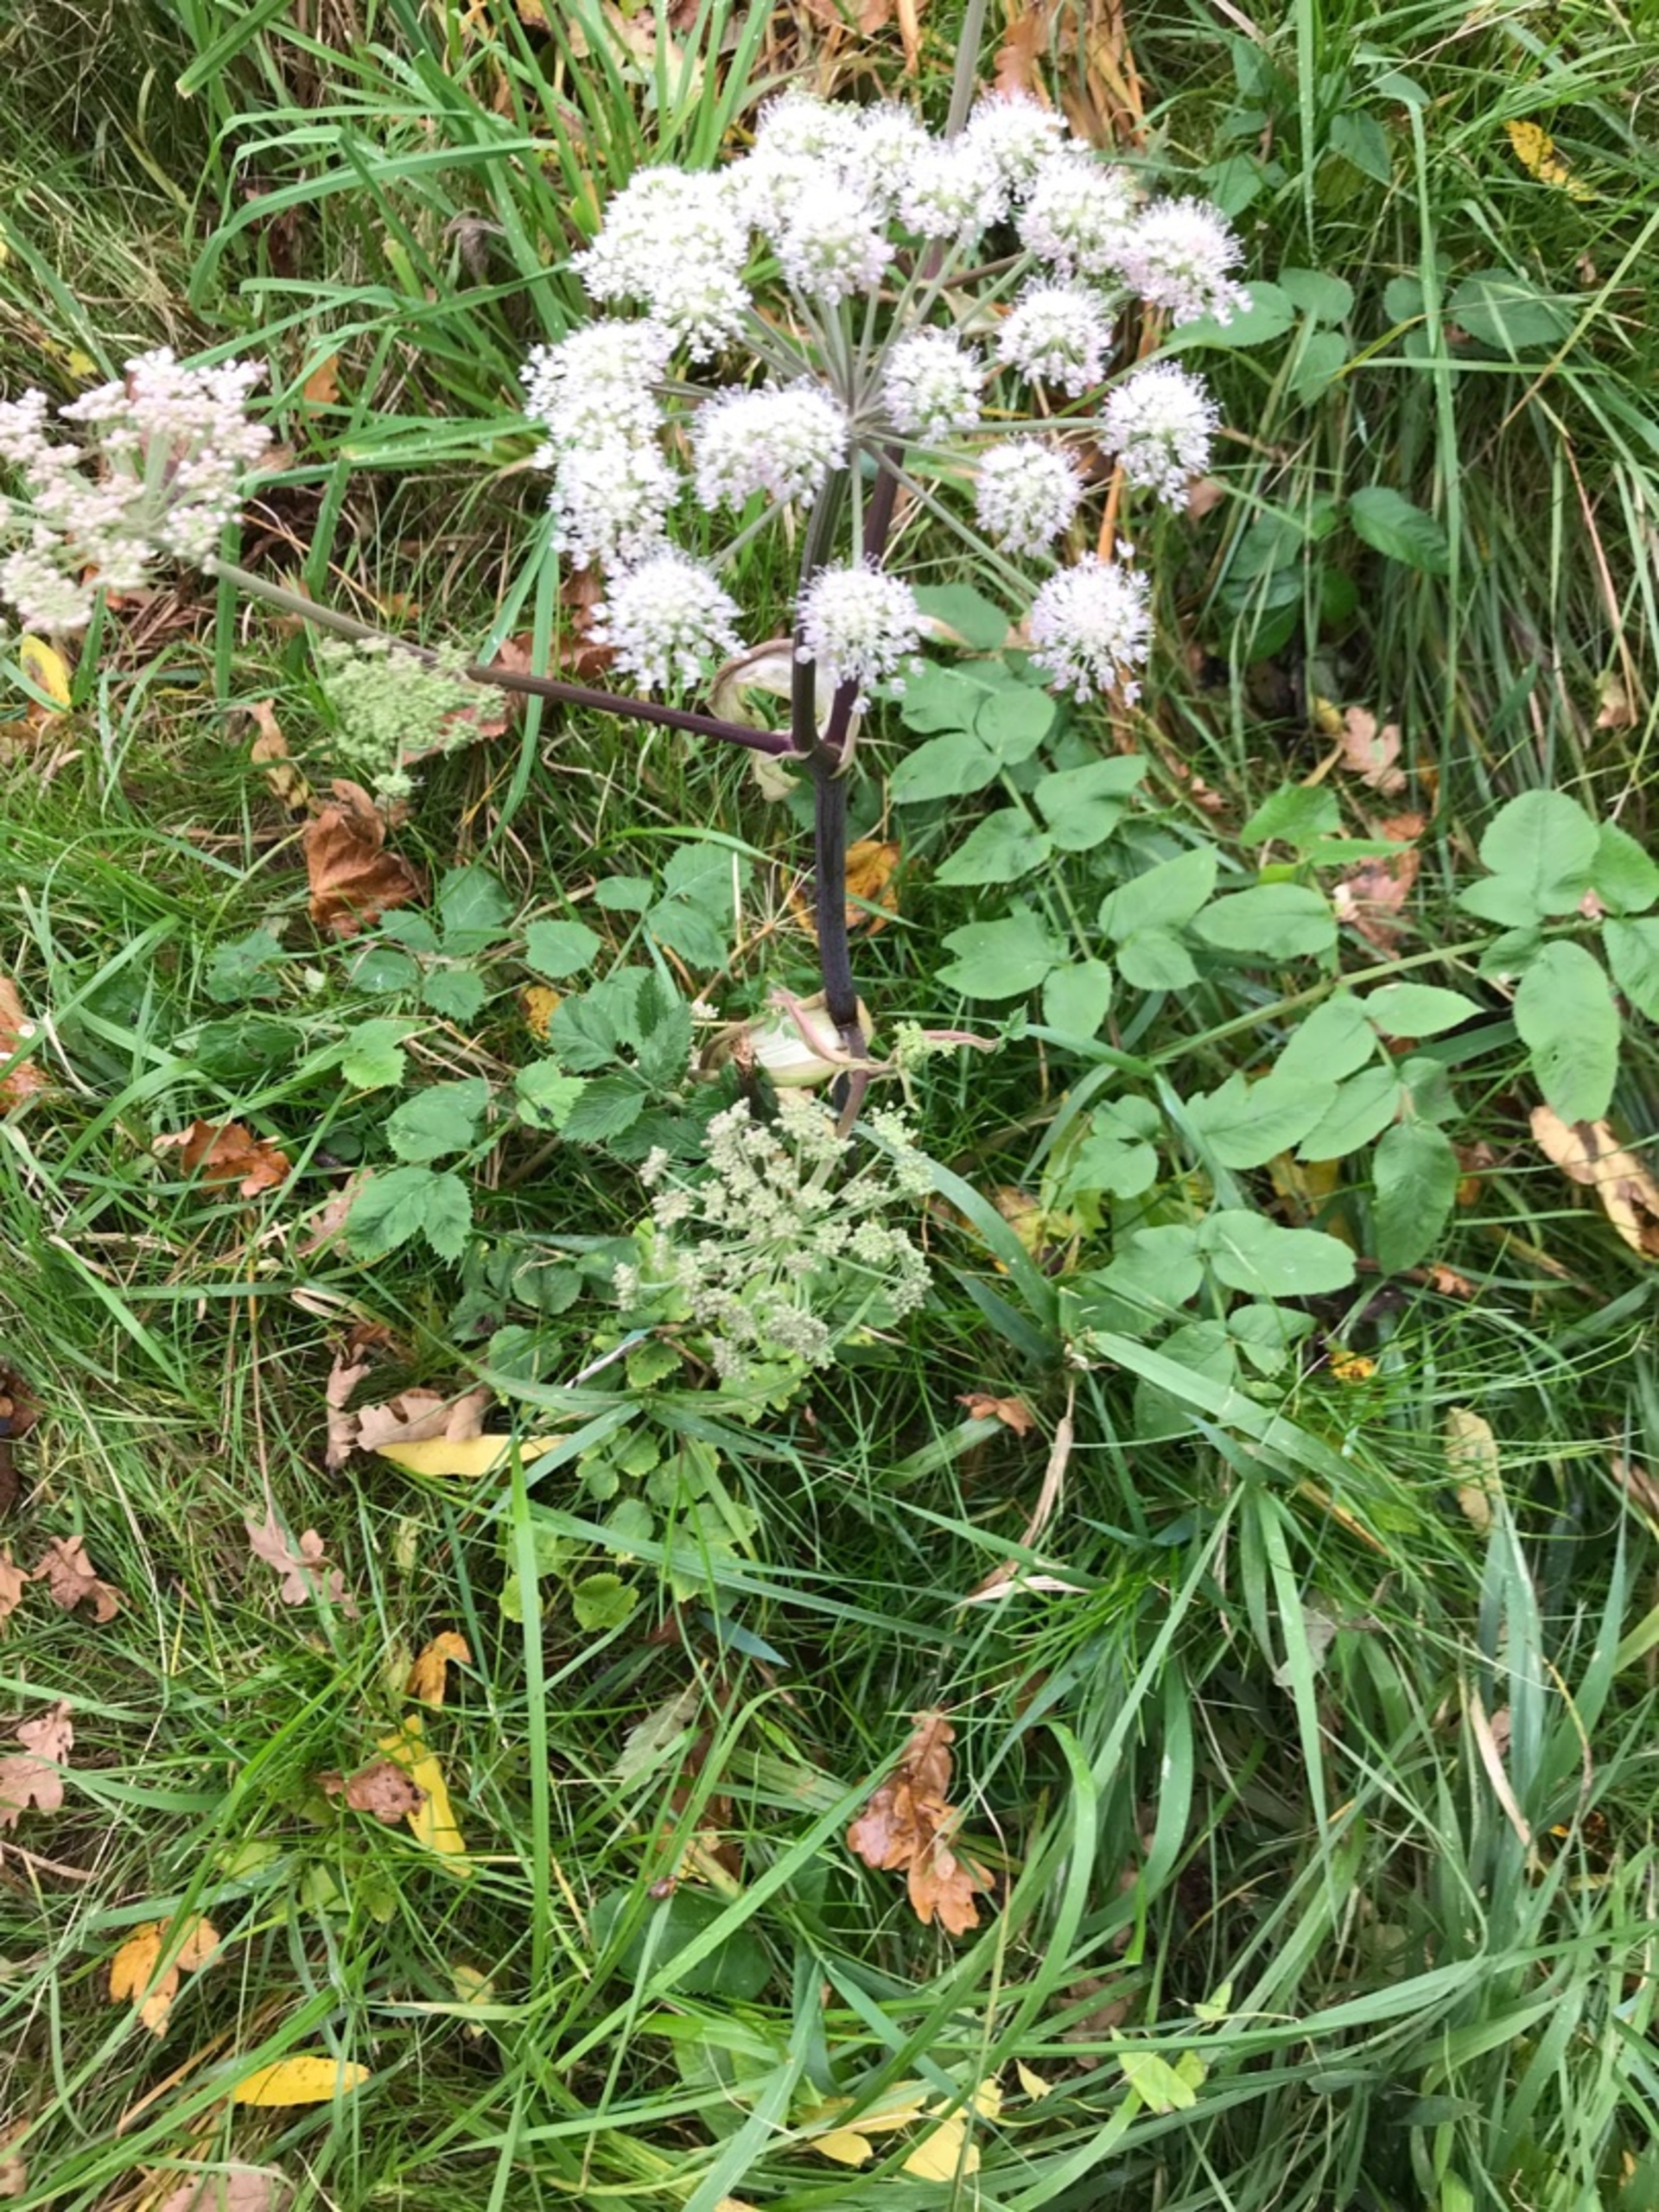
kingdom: Plantae
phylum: Tracheophyta
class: Magnoliopsida
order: Apiales
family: Apiaceae
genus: Angelica
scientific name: Angelica sylvestris
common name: Angelik
